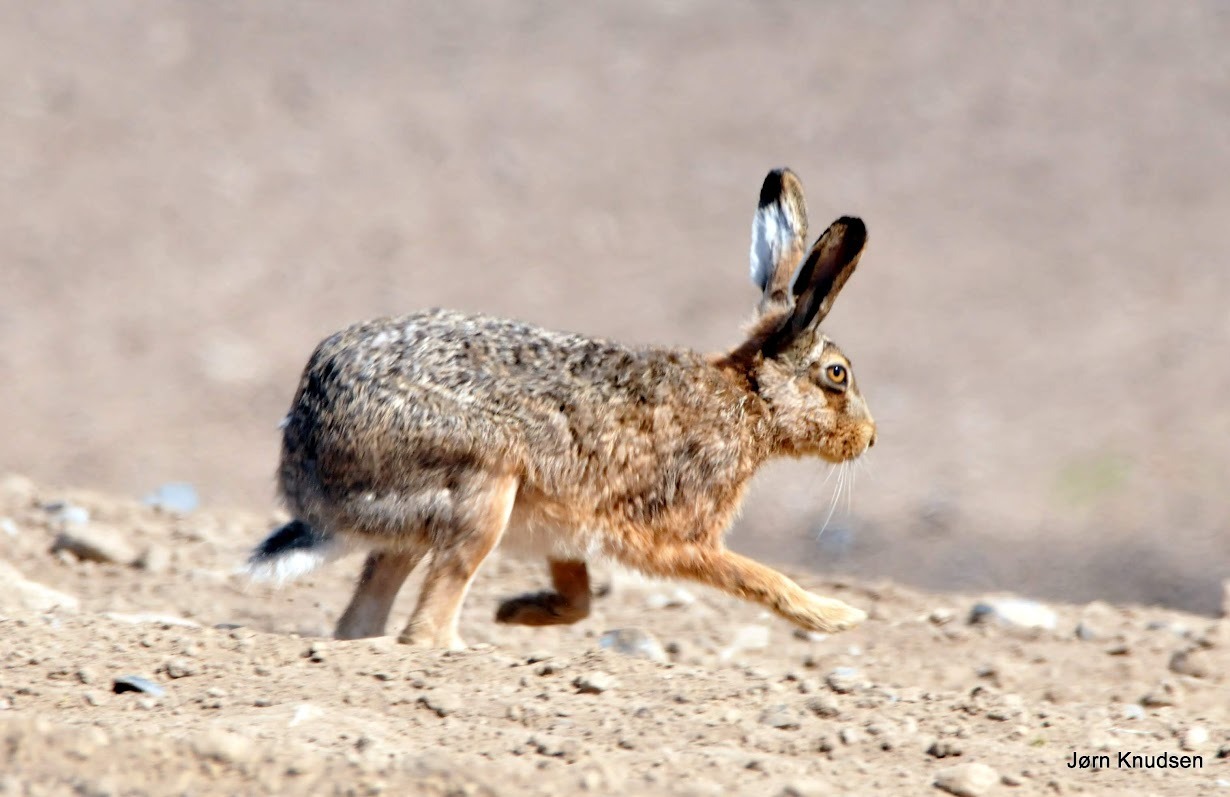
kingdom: Animalia
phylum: Chordata
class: Mammalia
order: Lagomorpha
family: Leporidae
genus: Lepus
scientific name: Lepus europaeus
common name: Hare
